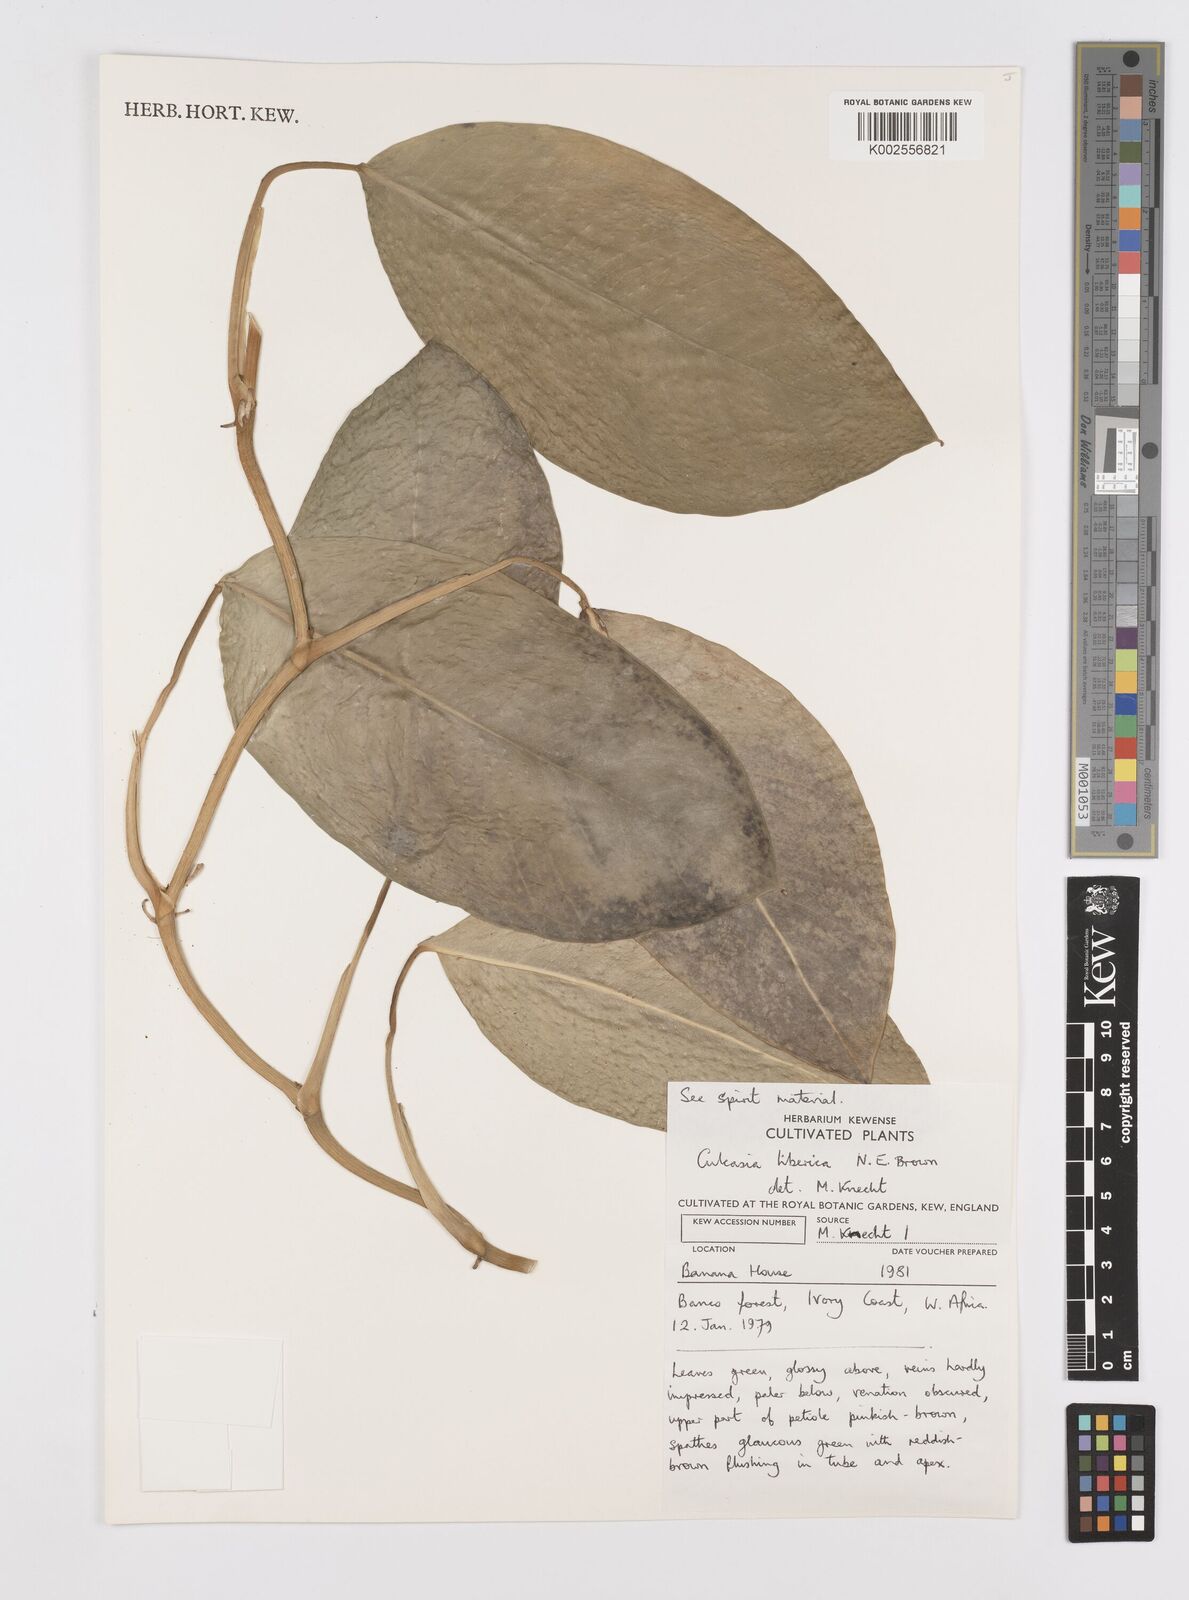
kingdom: Plantae
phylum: Tracheophyta
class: Liliopsida
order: Alismatales
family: Araceae
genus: Culcasia
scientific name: Culcasia liberica
